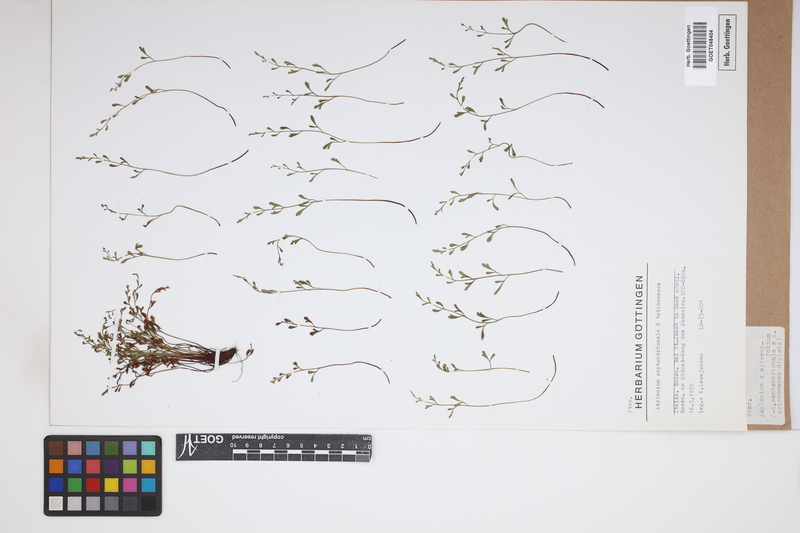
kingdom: Plantae
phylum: Tracheophyta
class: Polypodiopsida
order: Polypodiales
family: Aspleniaceae
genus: Asplenium
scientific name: Asplenium alternifolium
